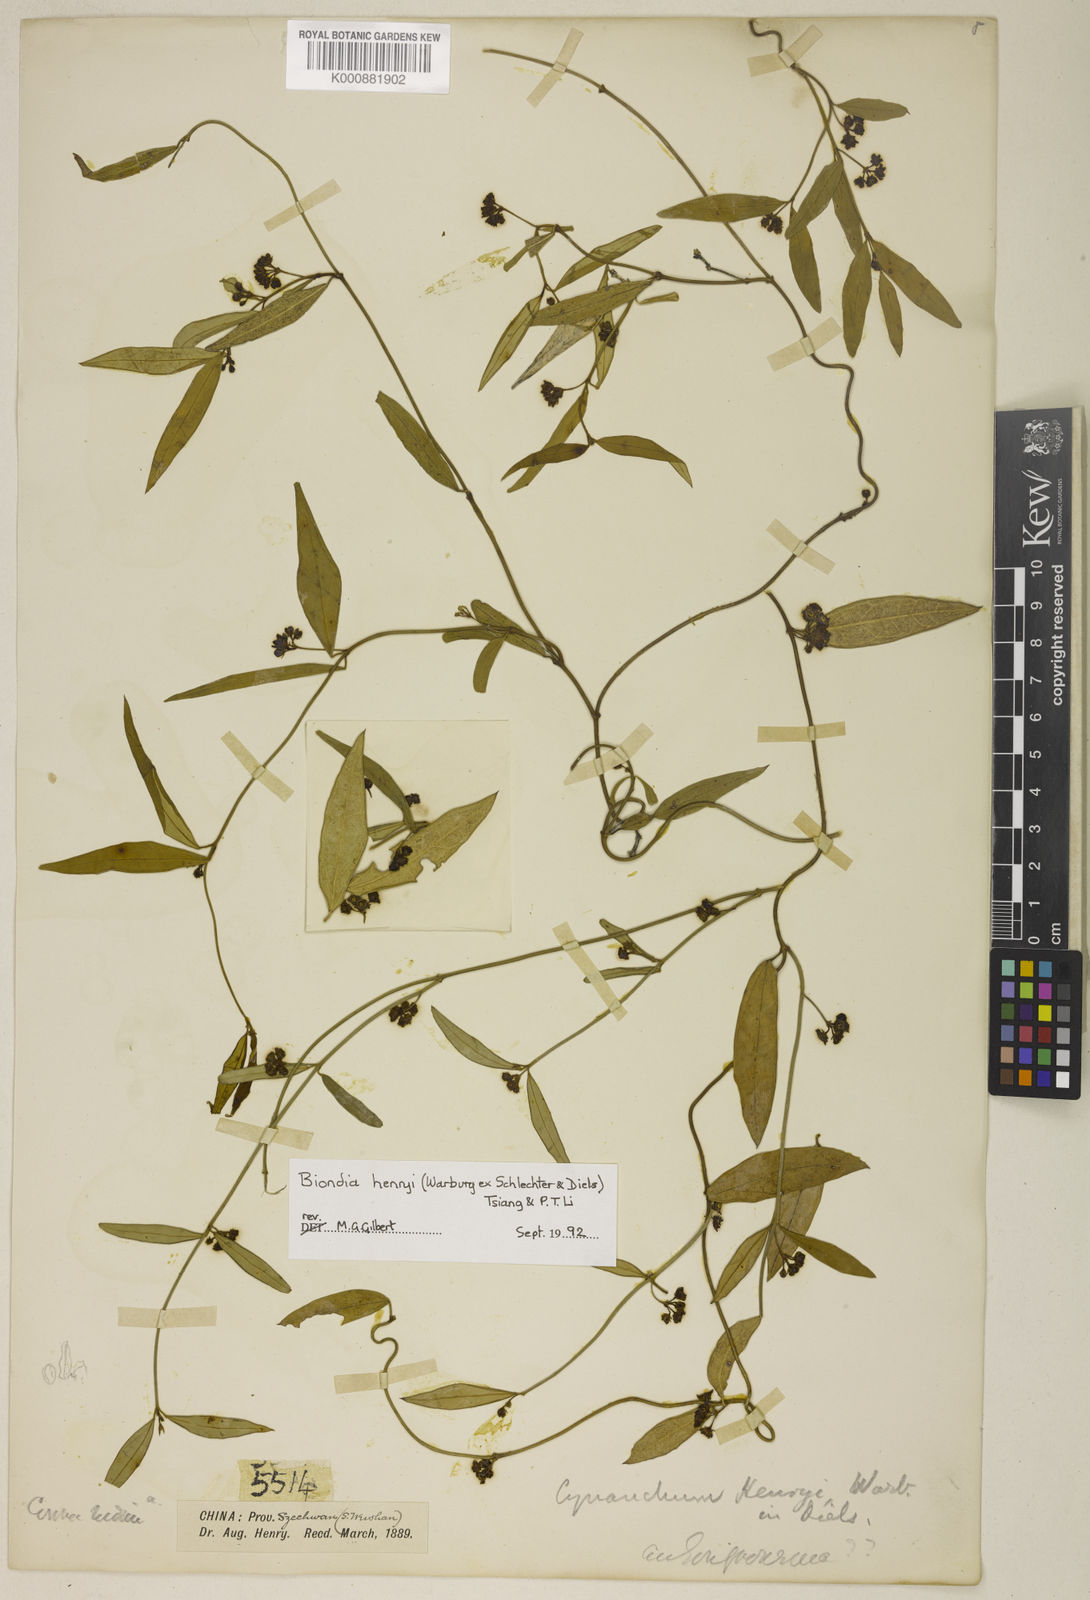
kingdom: Plantae
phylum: Tracheophyta
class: Magnoliopsida
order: Gentianales
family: Apocynaceae
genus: Vincetoxicum
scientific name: Vincetoxicum henryi
